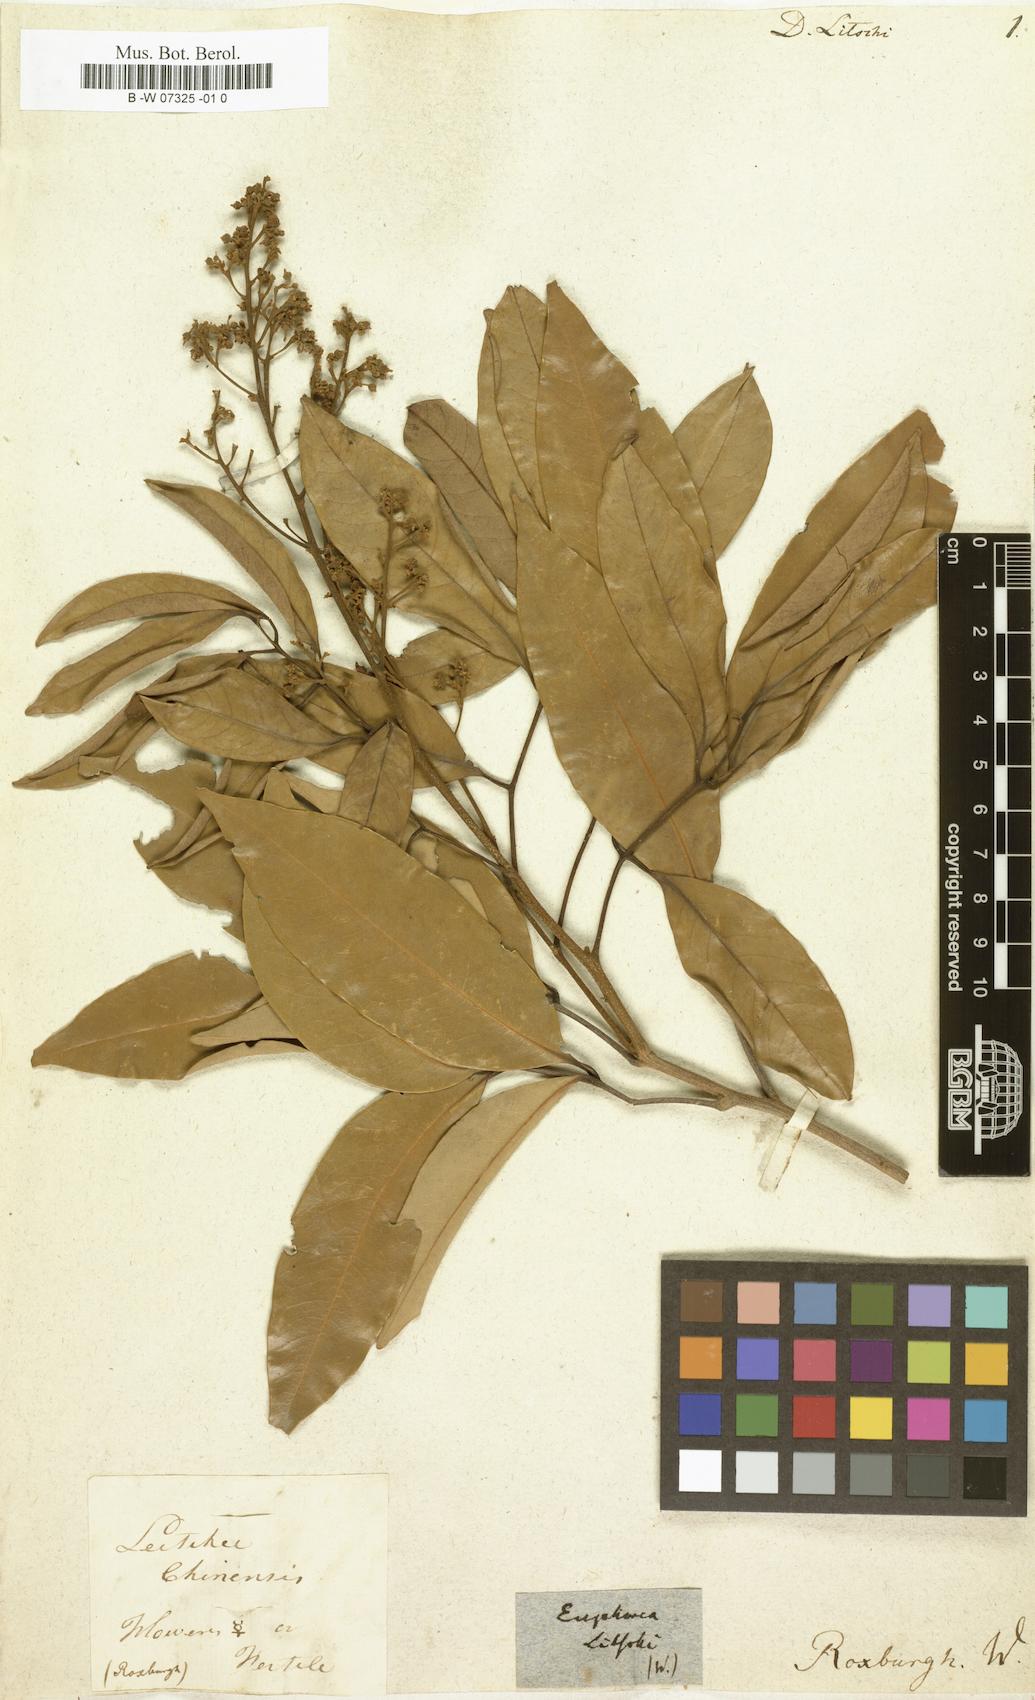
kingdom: Plantae
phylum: Tracheophyta
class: Magnoliopsida
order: Sapindales
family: Sapindaceae
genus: Litchi
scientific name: Litchi chinensis
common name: Litchi
